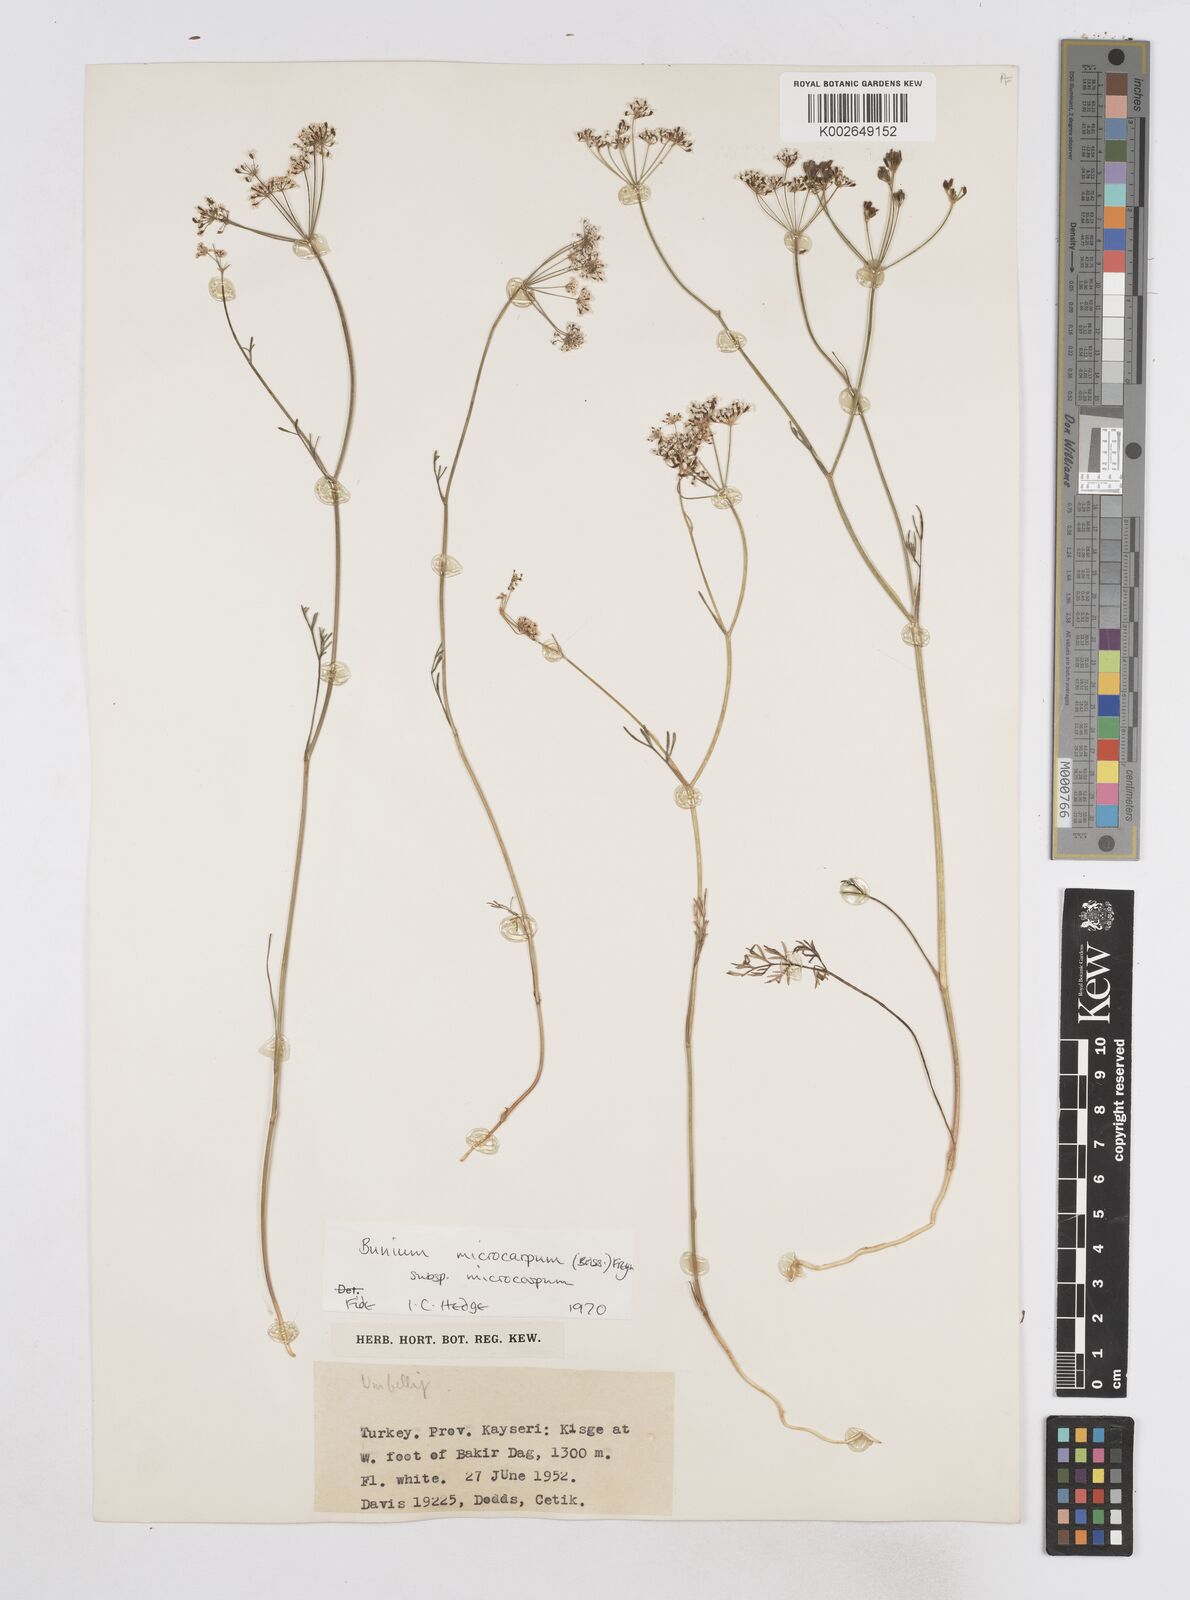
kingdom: Plantae
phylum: Tracheophyta
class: Magnoliopsida
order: Apiales
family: Apiaceae
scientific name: Apiaceae
